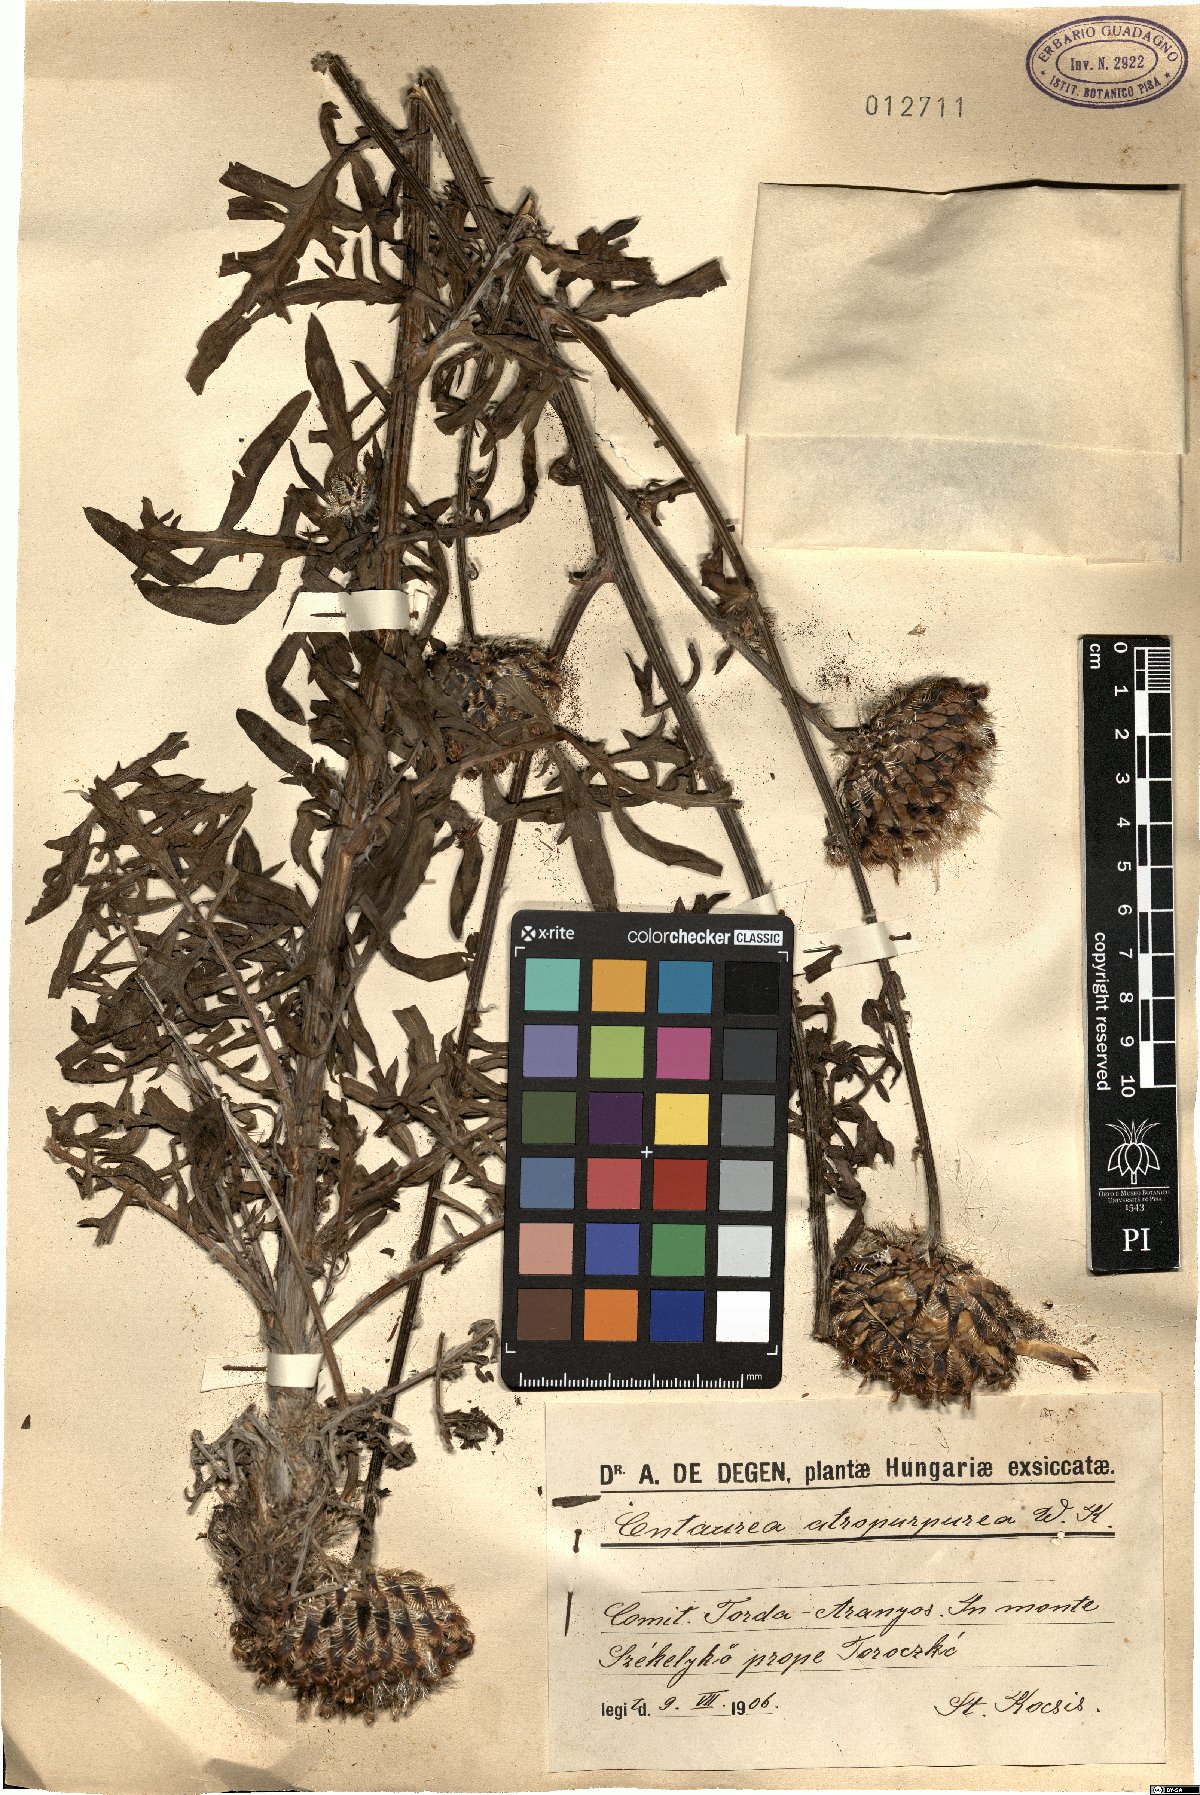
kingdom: Plantae
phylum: Tracheophyta
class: Magnoliopsida
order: Asterales
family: Asteraceae
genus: Centaurea
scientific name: Centaurea calocephala
